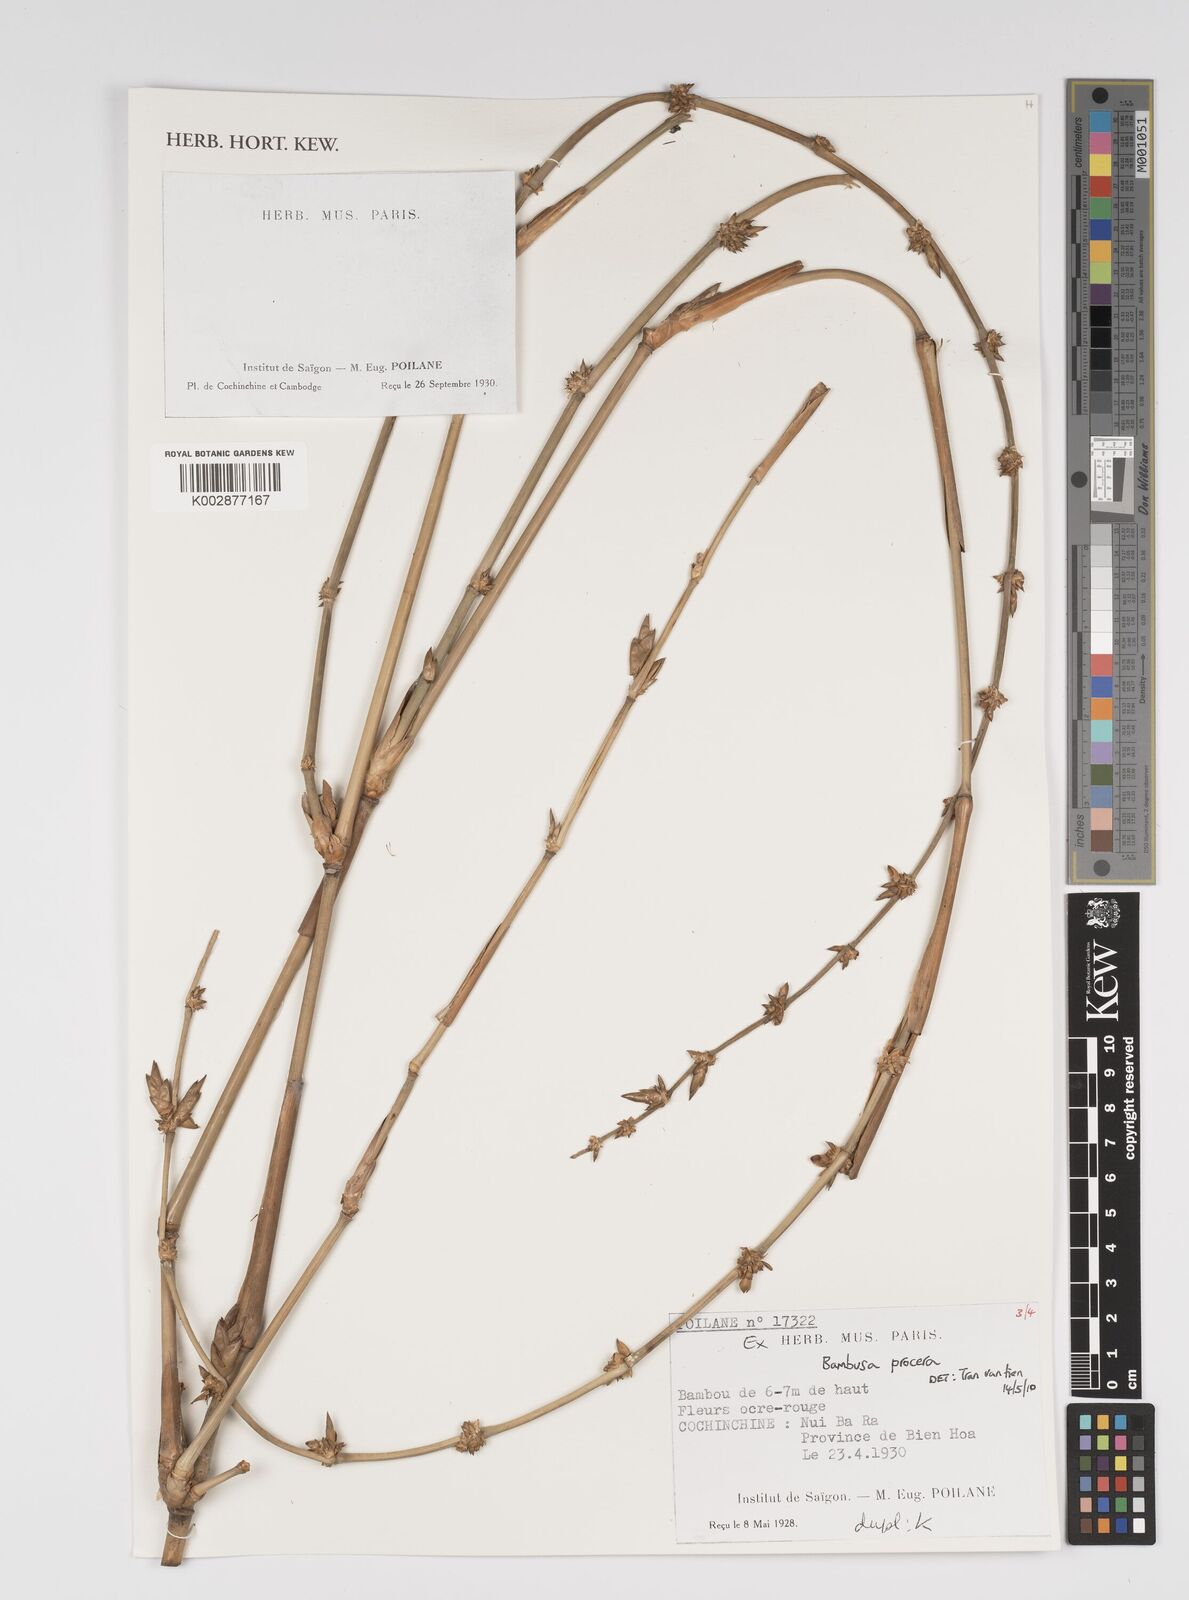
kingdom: Plantae
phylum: Tracheophyta
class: Liliopsida
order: Poales
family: Poaceae
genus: Bambusa
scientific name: Bambusa procera
